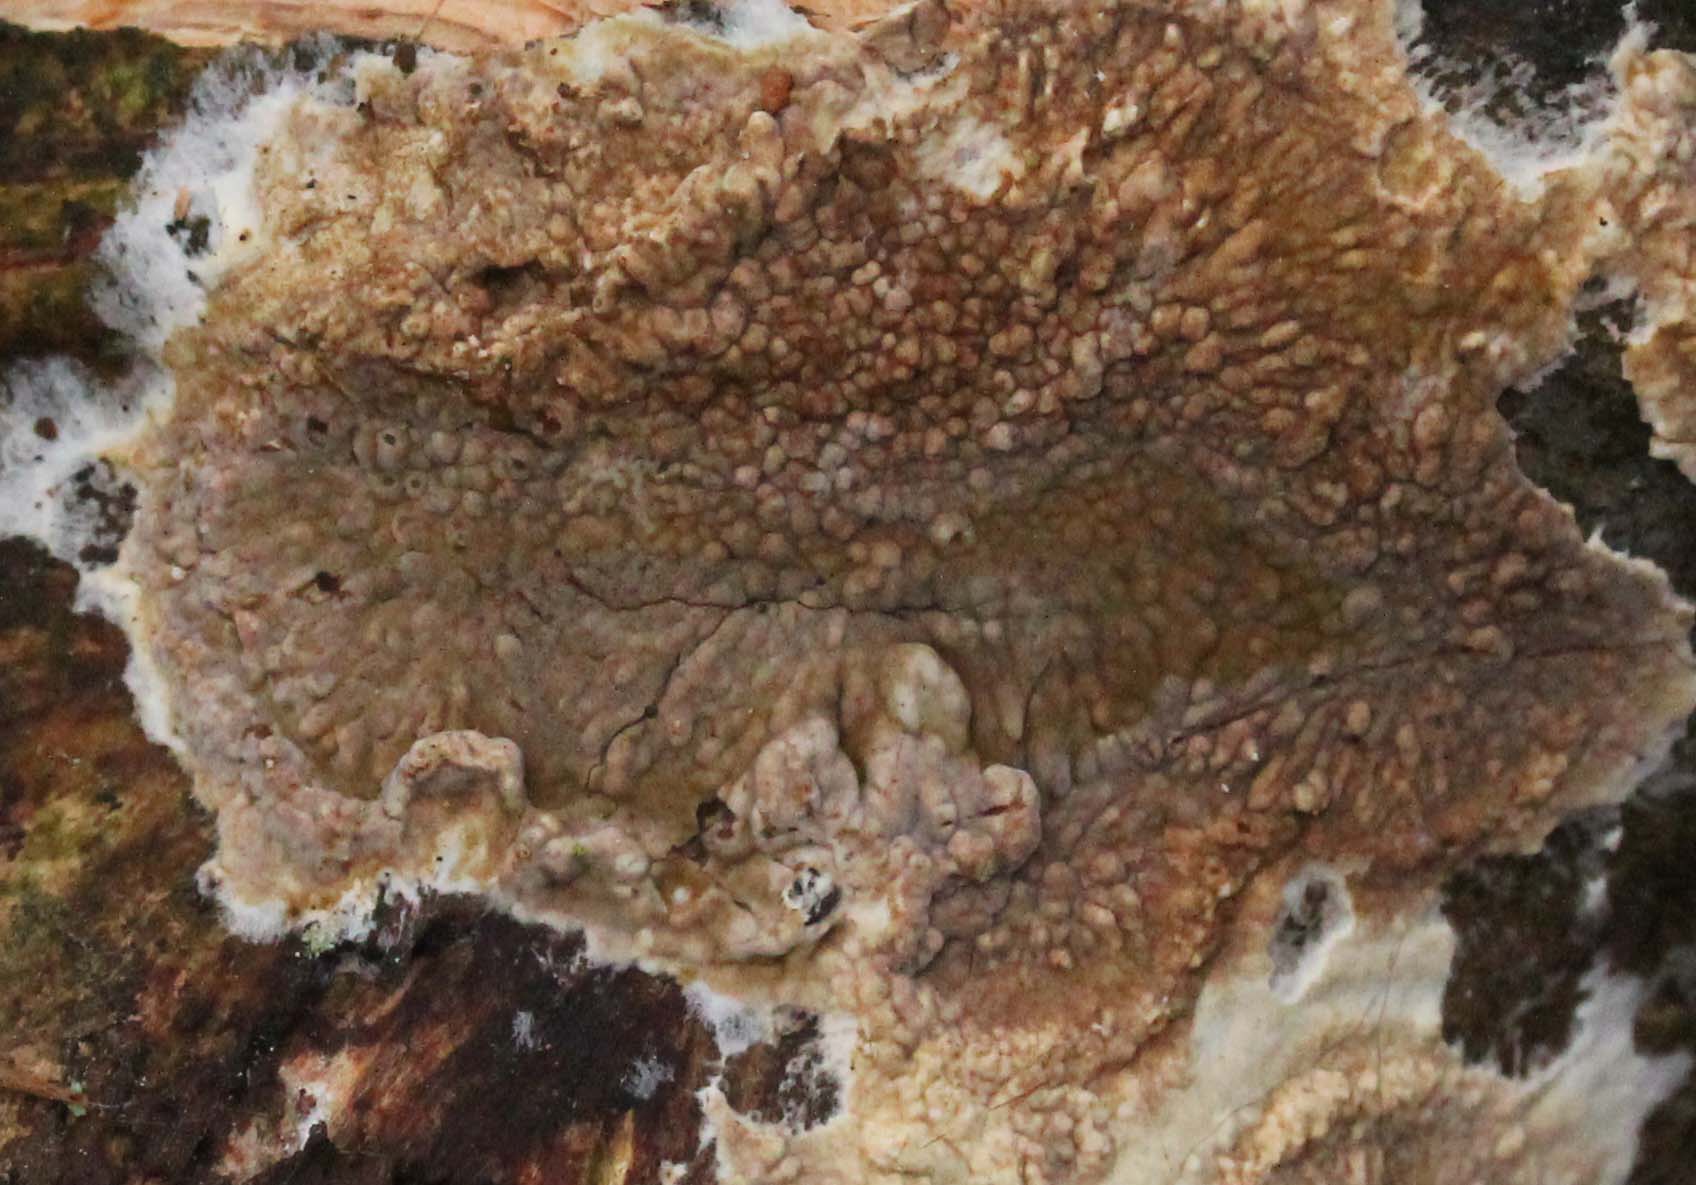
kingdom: Fungi
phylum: Basidiomycota
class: Agaricomycetes
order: Boletales
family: Coniophoraceae
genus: Coniophora
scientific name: Coniophora puteana
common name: gul tømmersvamp
